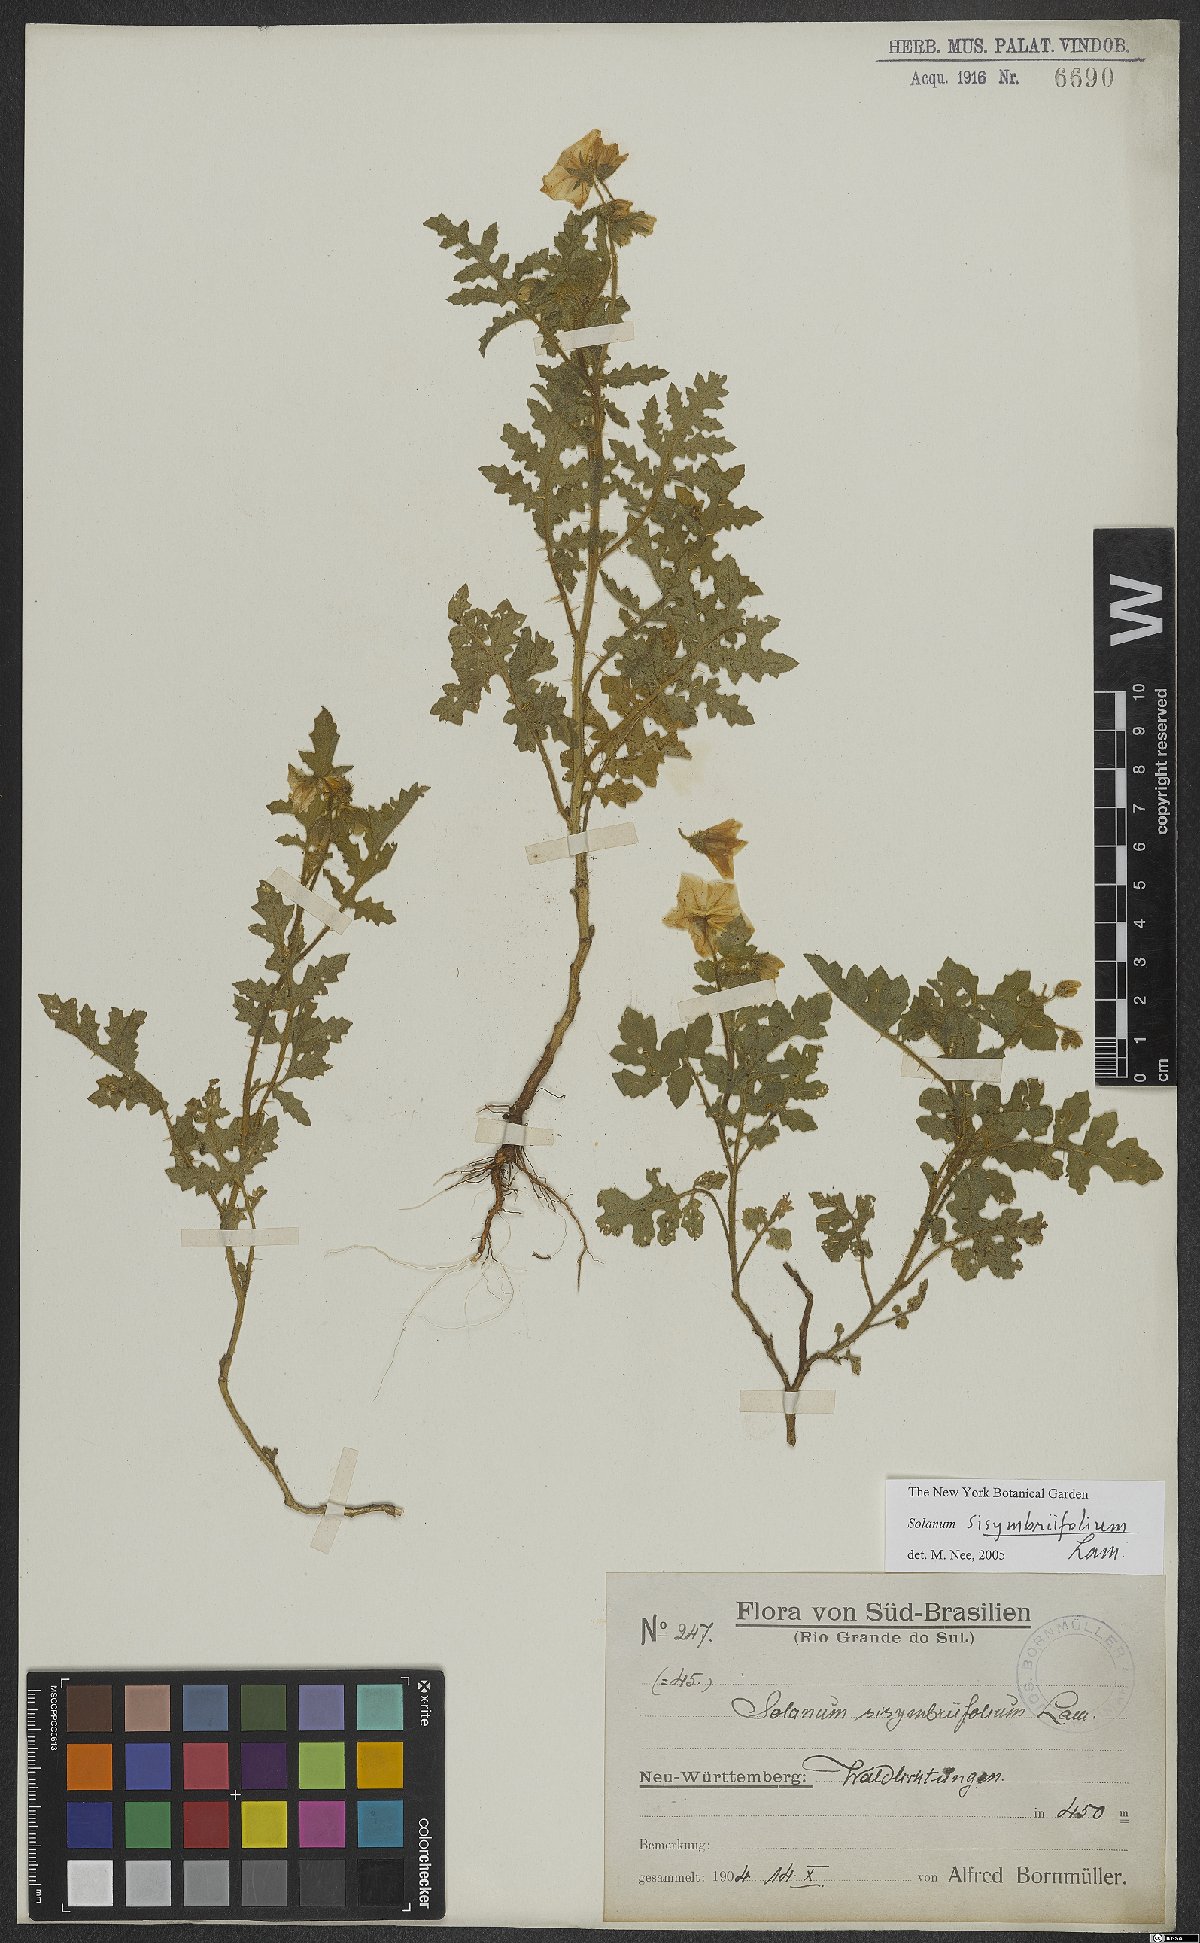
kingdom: Plantae
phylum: Tracheophyta
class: Magnoliopsida
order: Solanales
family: Solanaceae
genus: Solanum
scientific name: Solanum sisymbriifolium
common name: Red buffalo-bur
